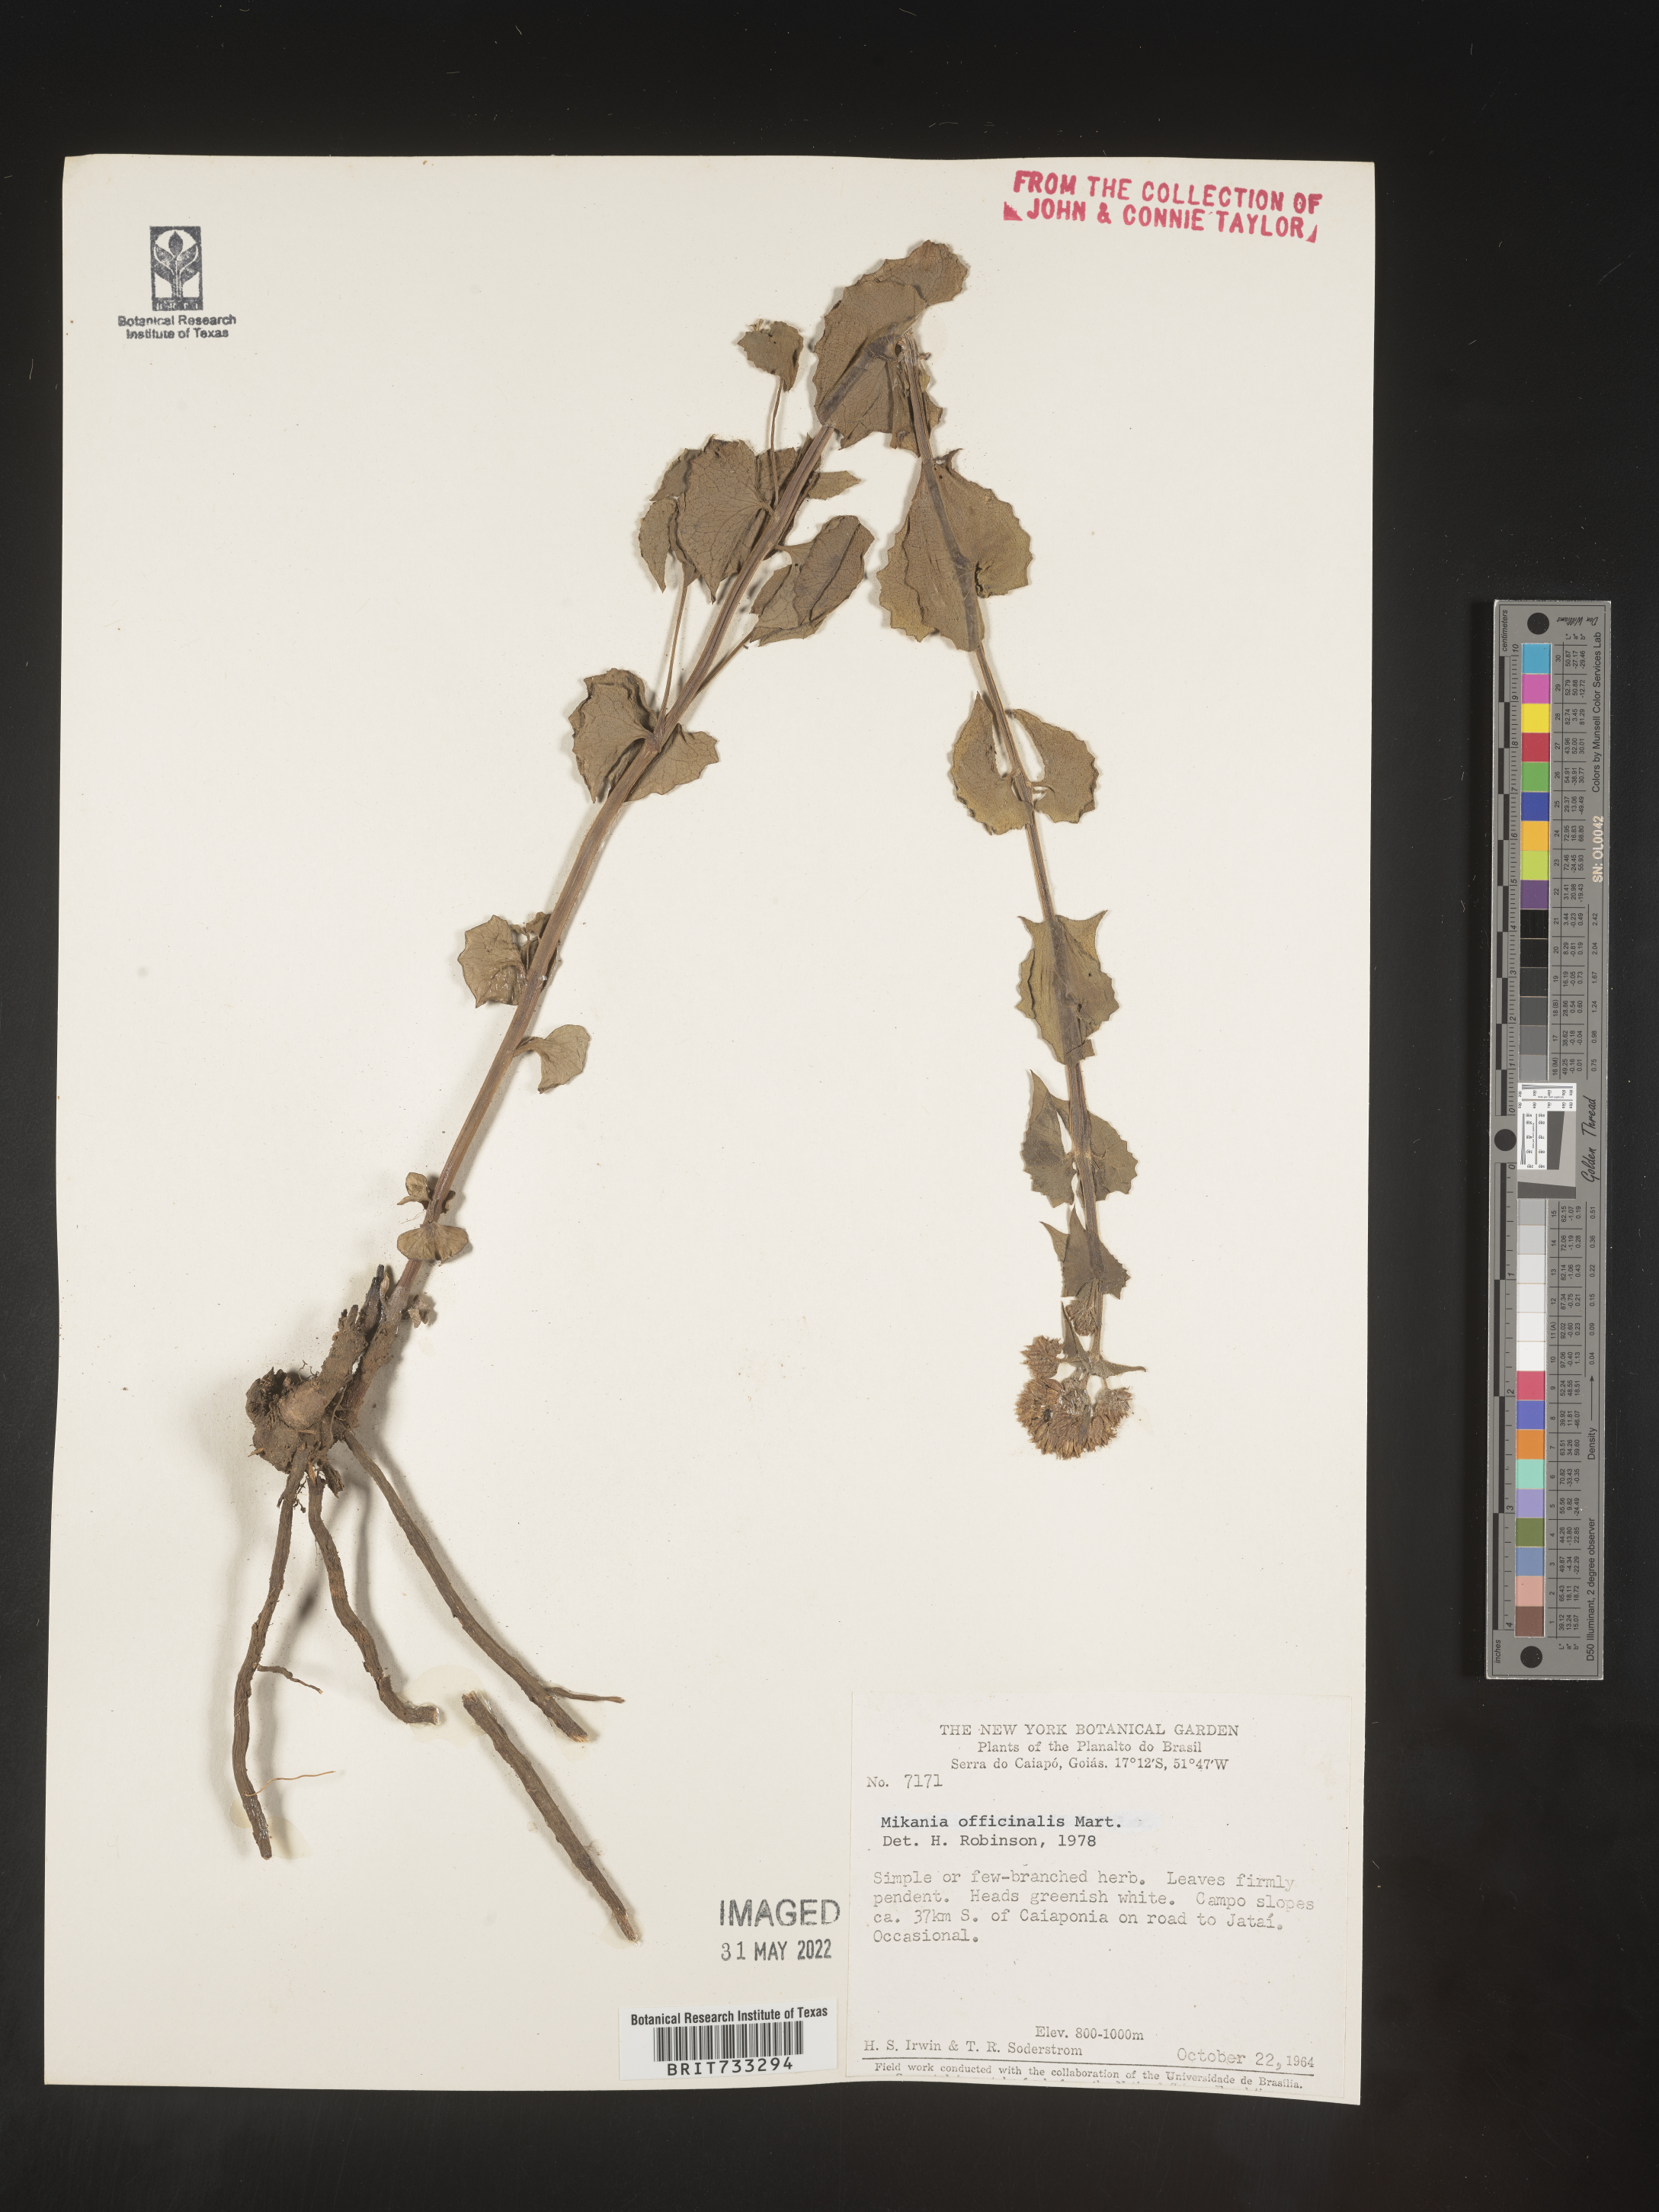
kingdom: Plantae
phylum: Tracheophyta
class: Magnoliopsida
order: Asterales
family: Asteraceae
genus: Mikania
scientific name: Mikania
